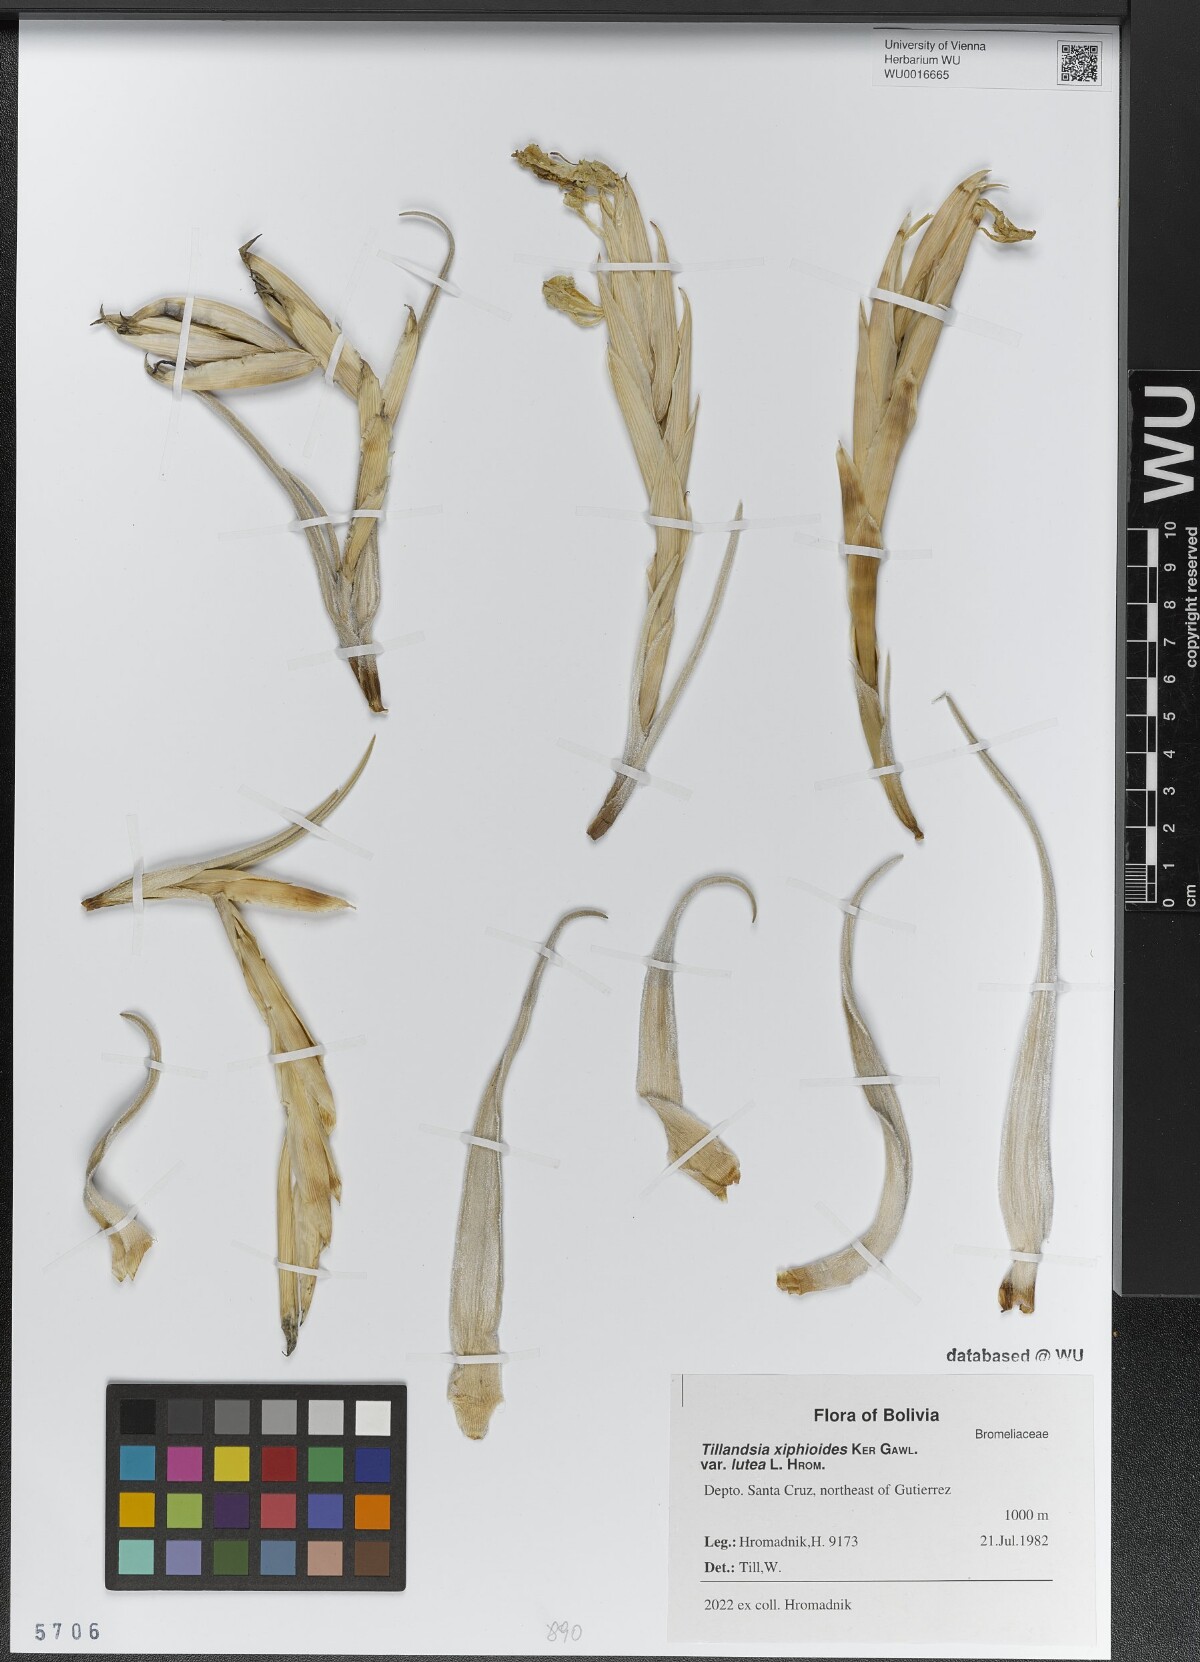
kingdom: Plantae
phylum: Tracheophyta
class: Liliopsida
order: Poales
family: Bromeliaceae
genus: Tillandsia
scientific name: Tillandsia xiphioides
